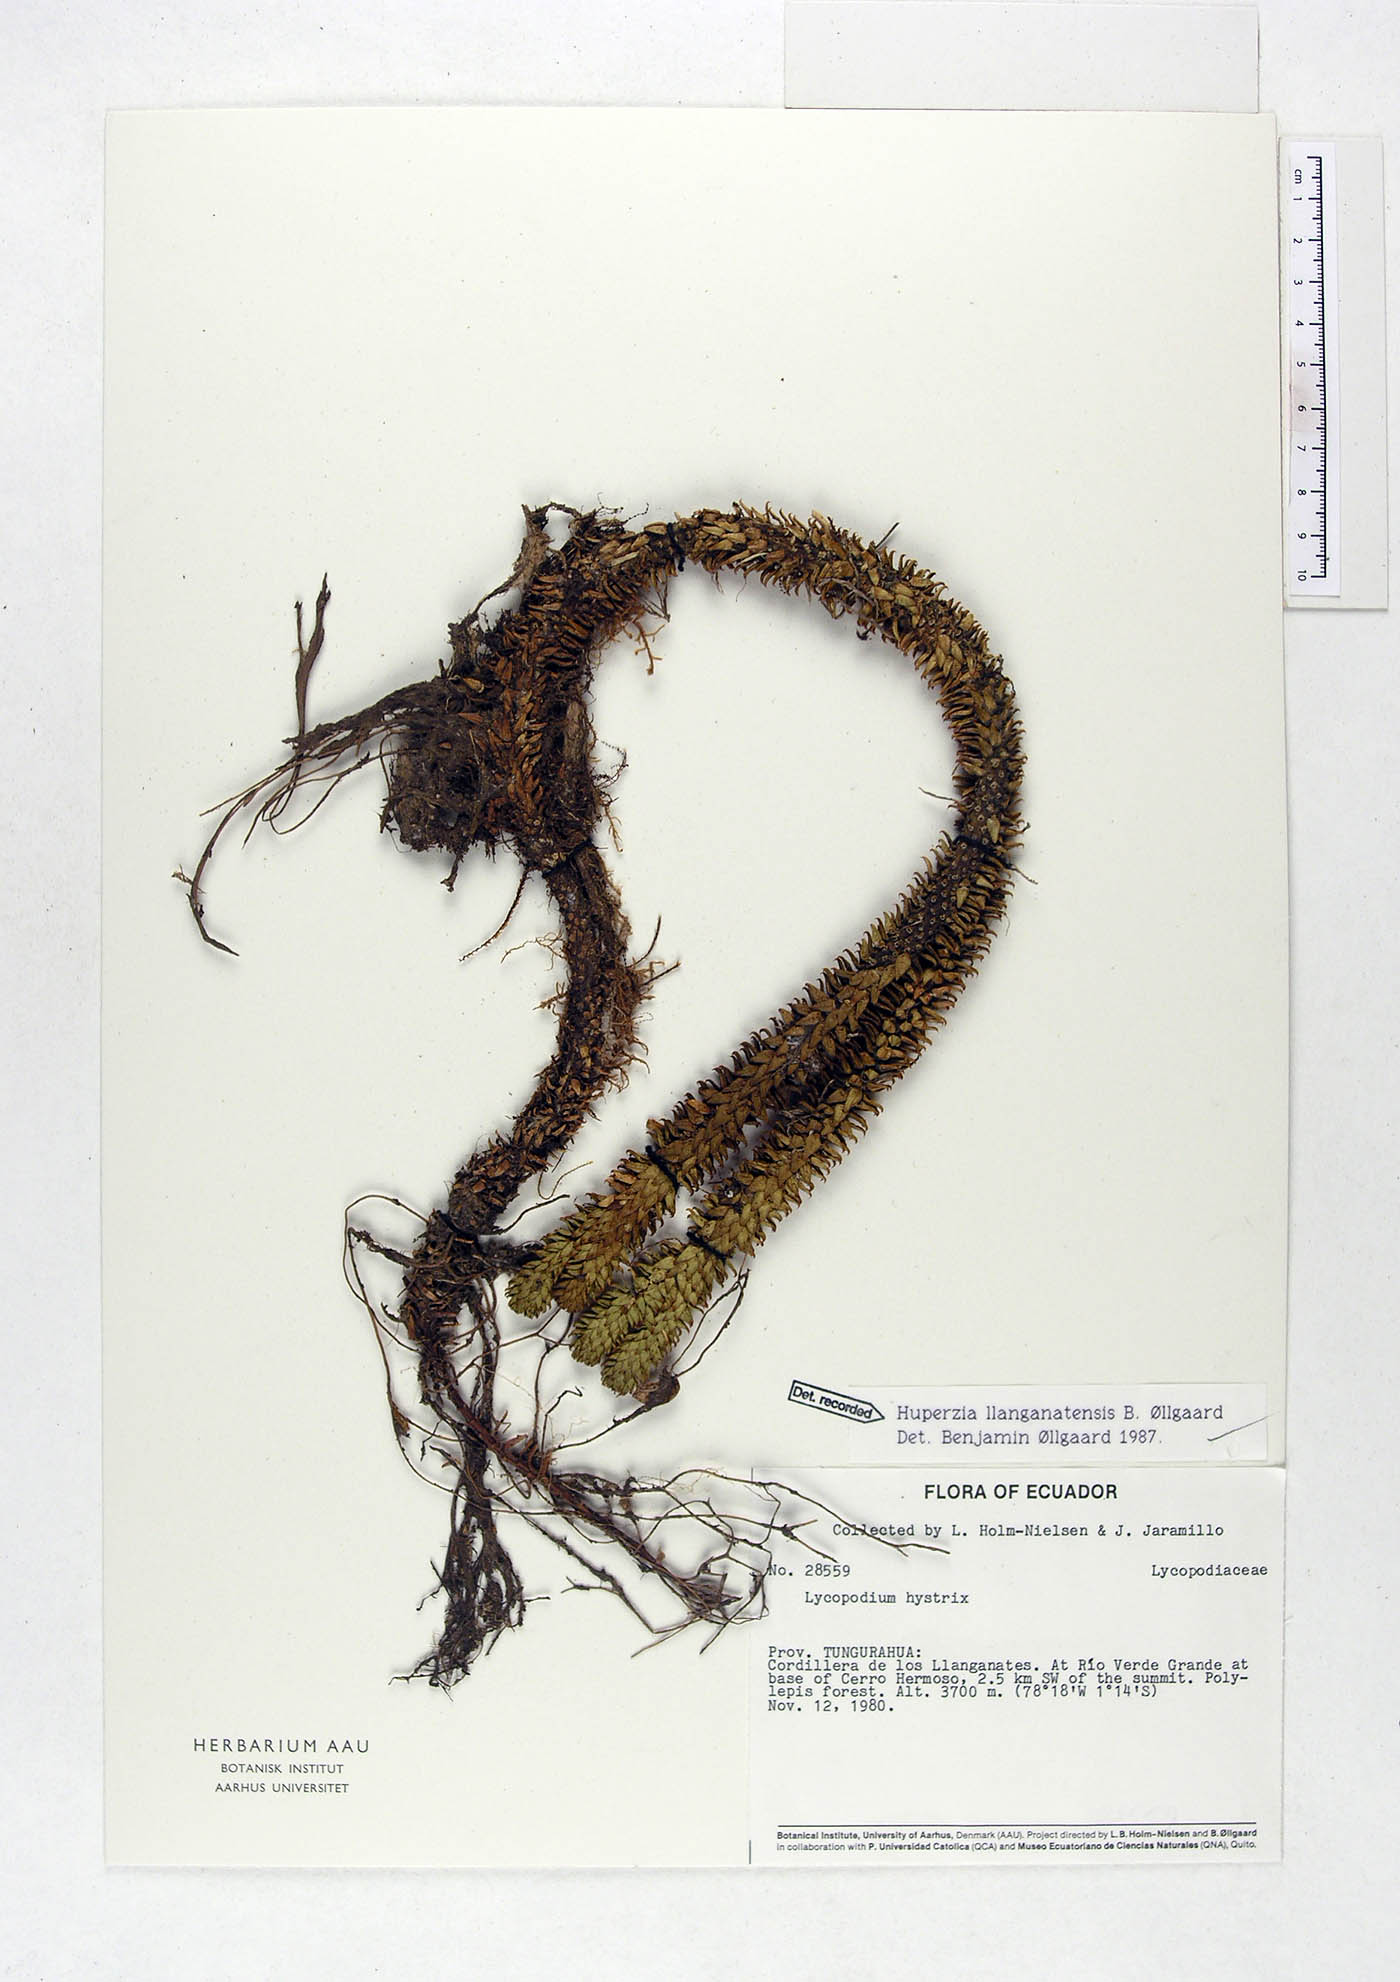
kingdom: Plantae
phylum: Tracheophyta
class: Lycopodiopsida
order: Lycopodiales
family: Lycopodiaceae
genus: Phlegmariurus
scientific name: Phlegmariurus llanganatensis
